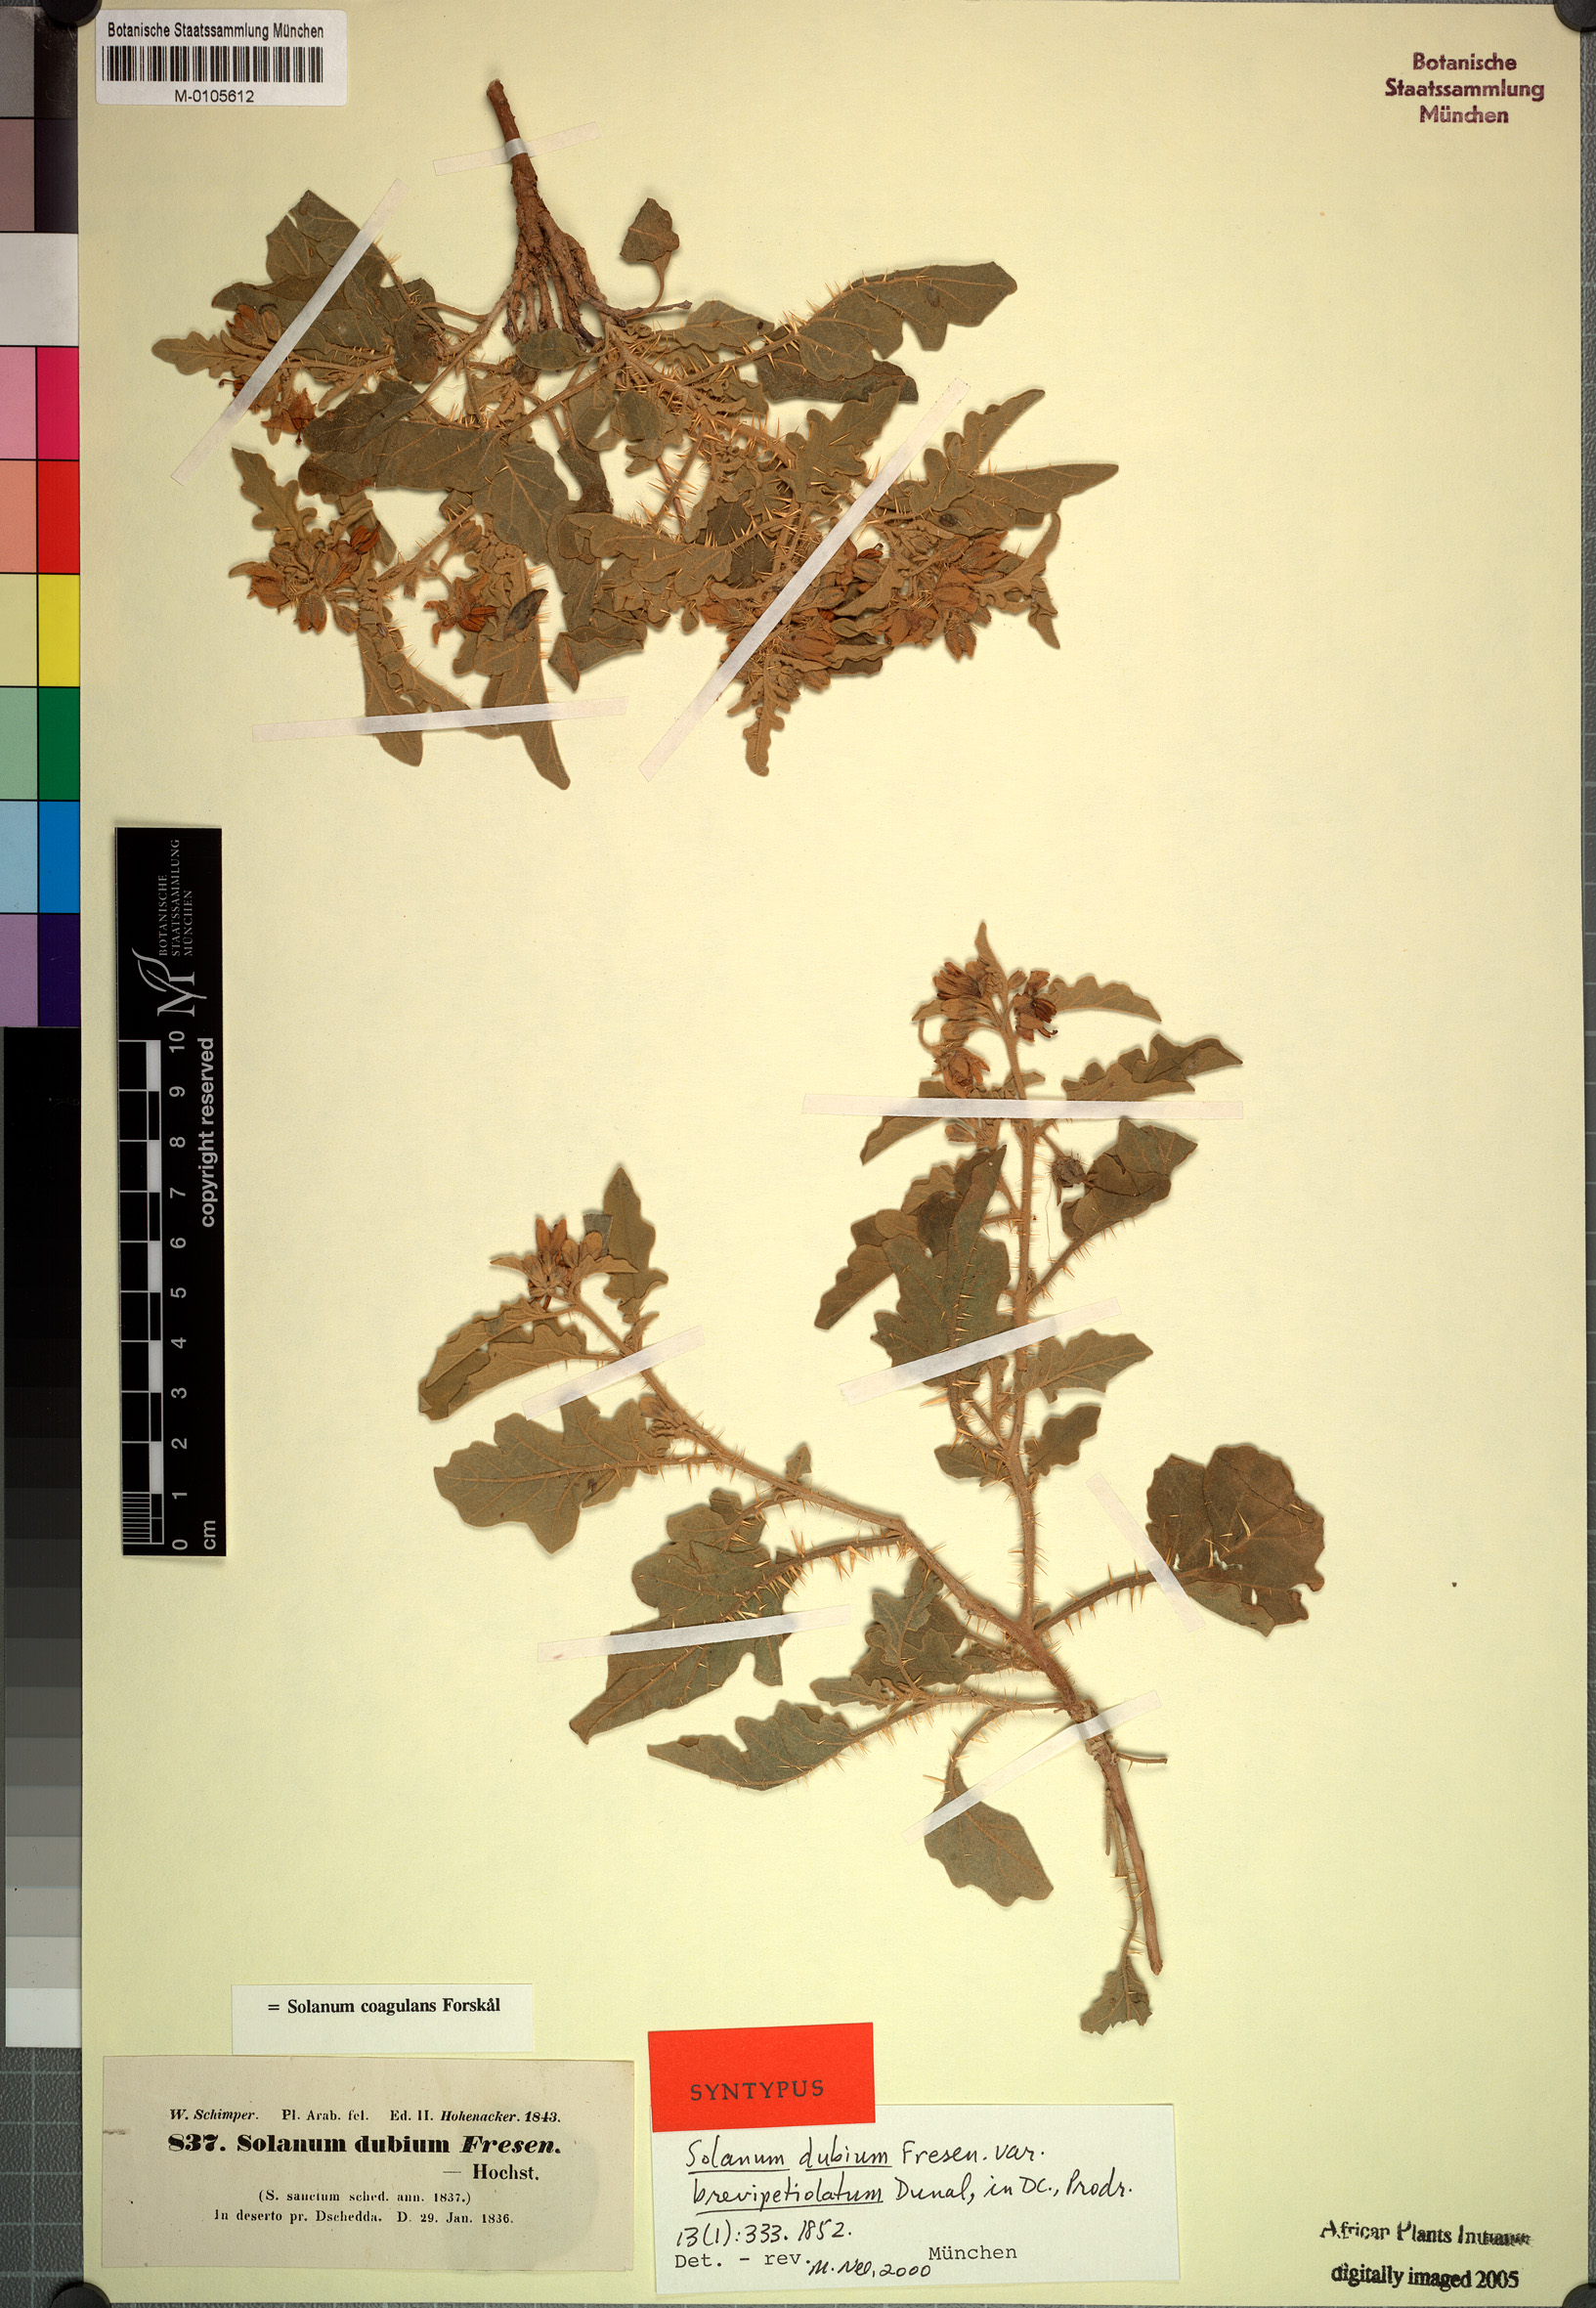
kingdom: Plantae
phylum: Tracheophyta
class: Magnoliopsida
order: Solanales
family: Solanaceae
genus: Solanum
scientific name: Solanum coagulans
